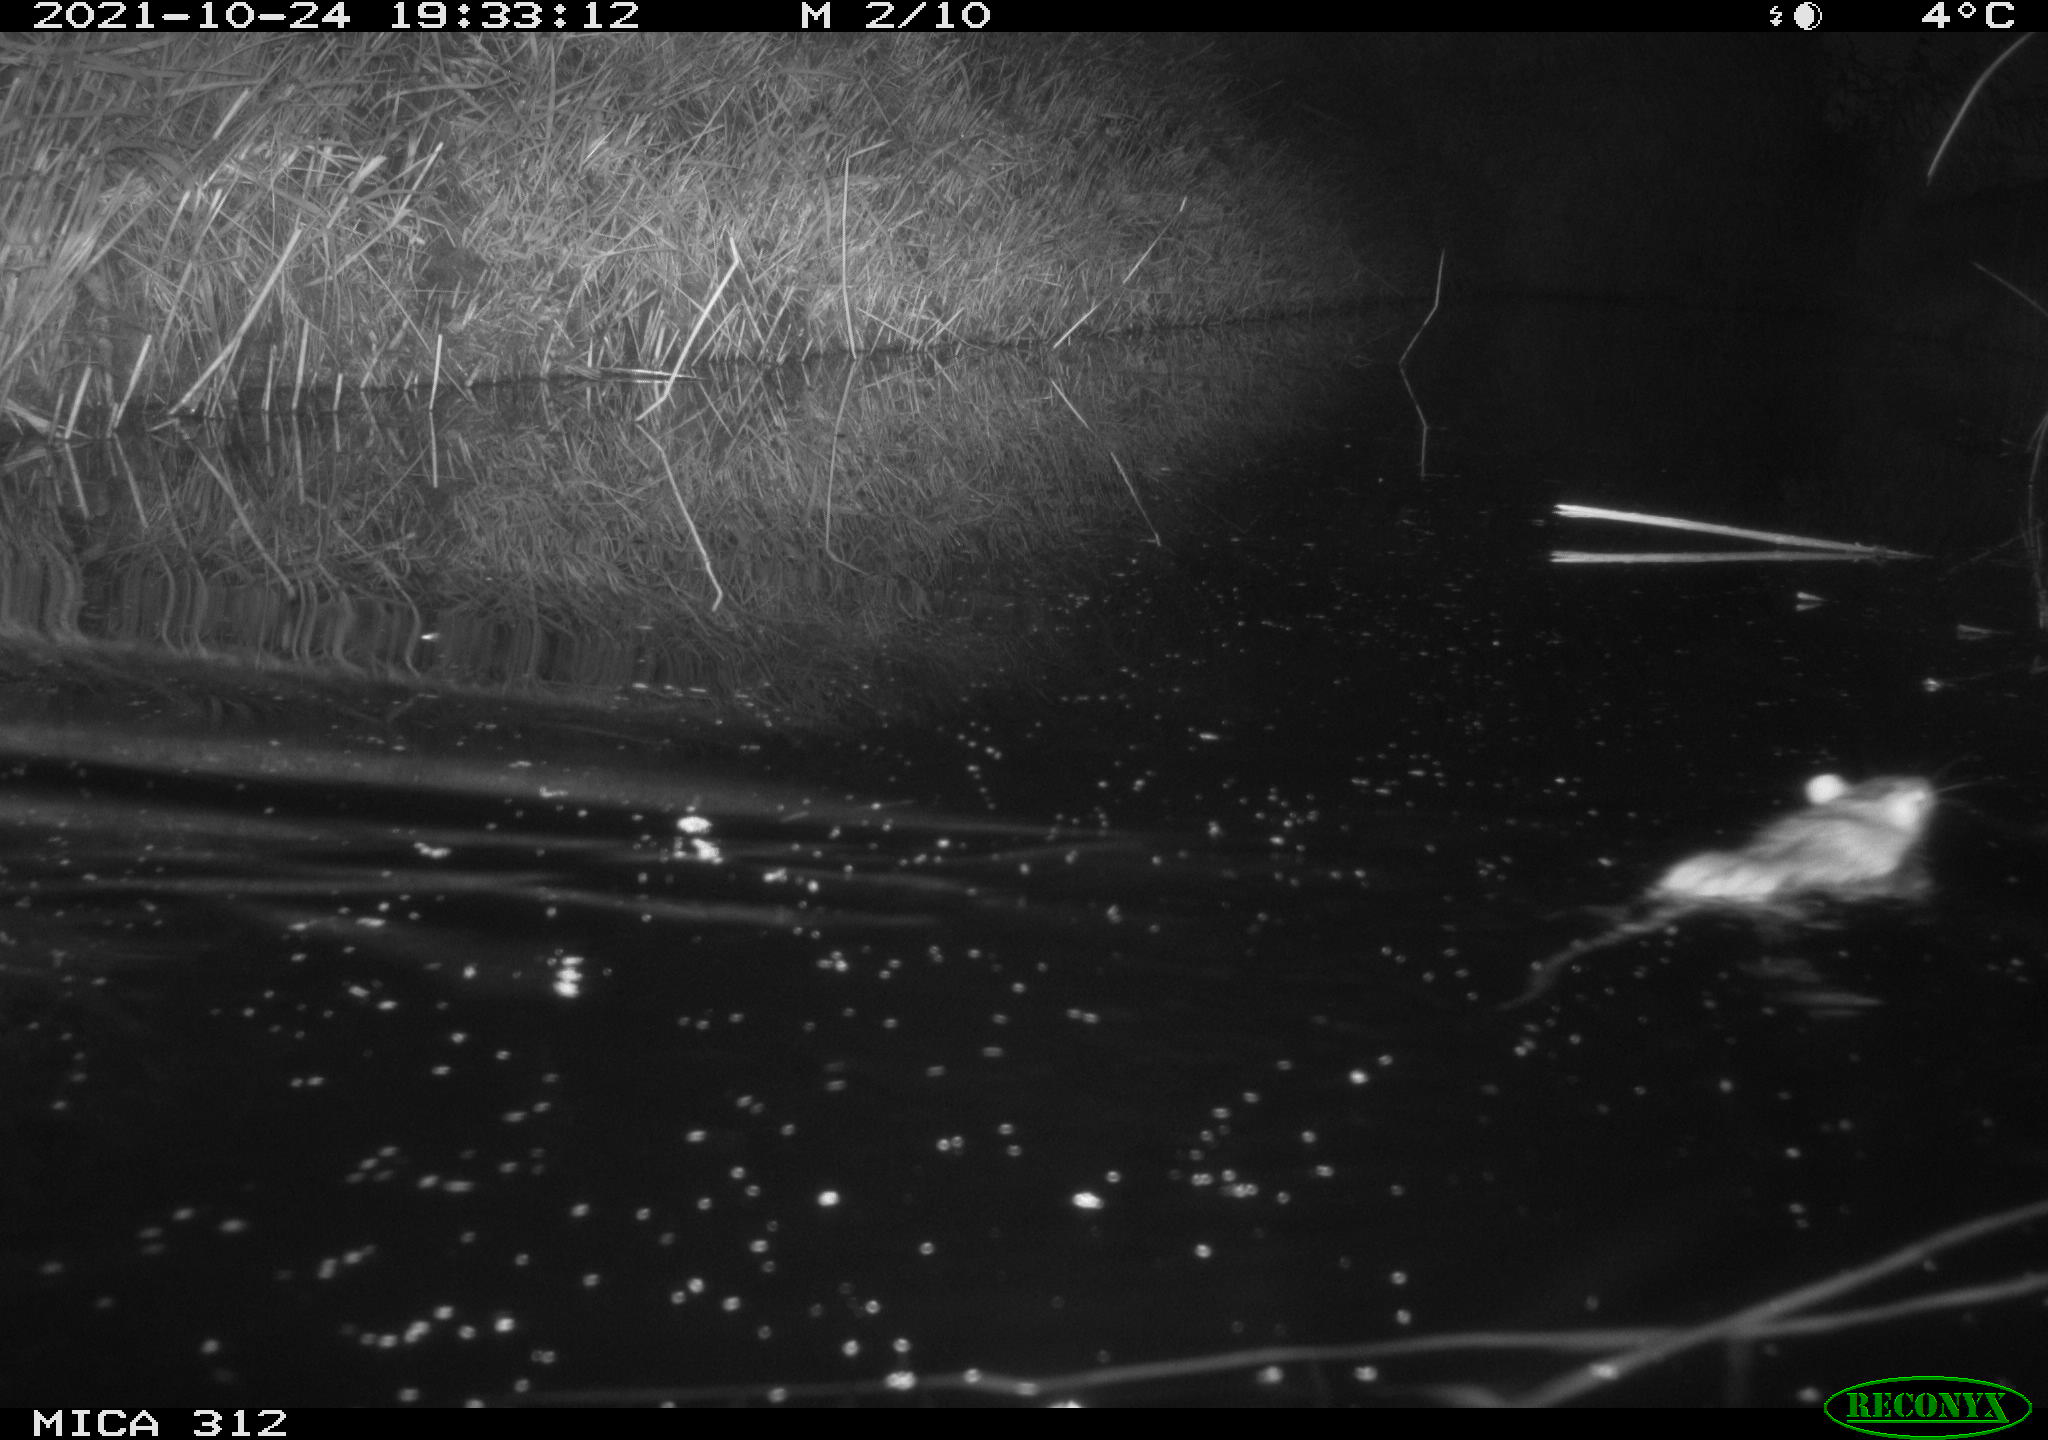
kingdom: Animalia
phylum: Chordata
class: Mammalia
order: Rodentia
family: Muridae
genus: Rattus
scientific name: Rattus norvegicus
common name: Brown rat
